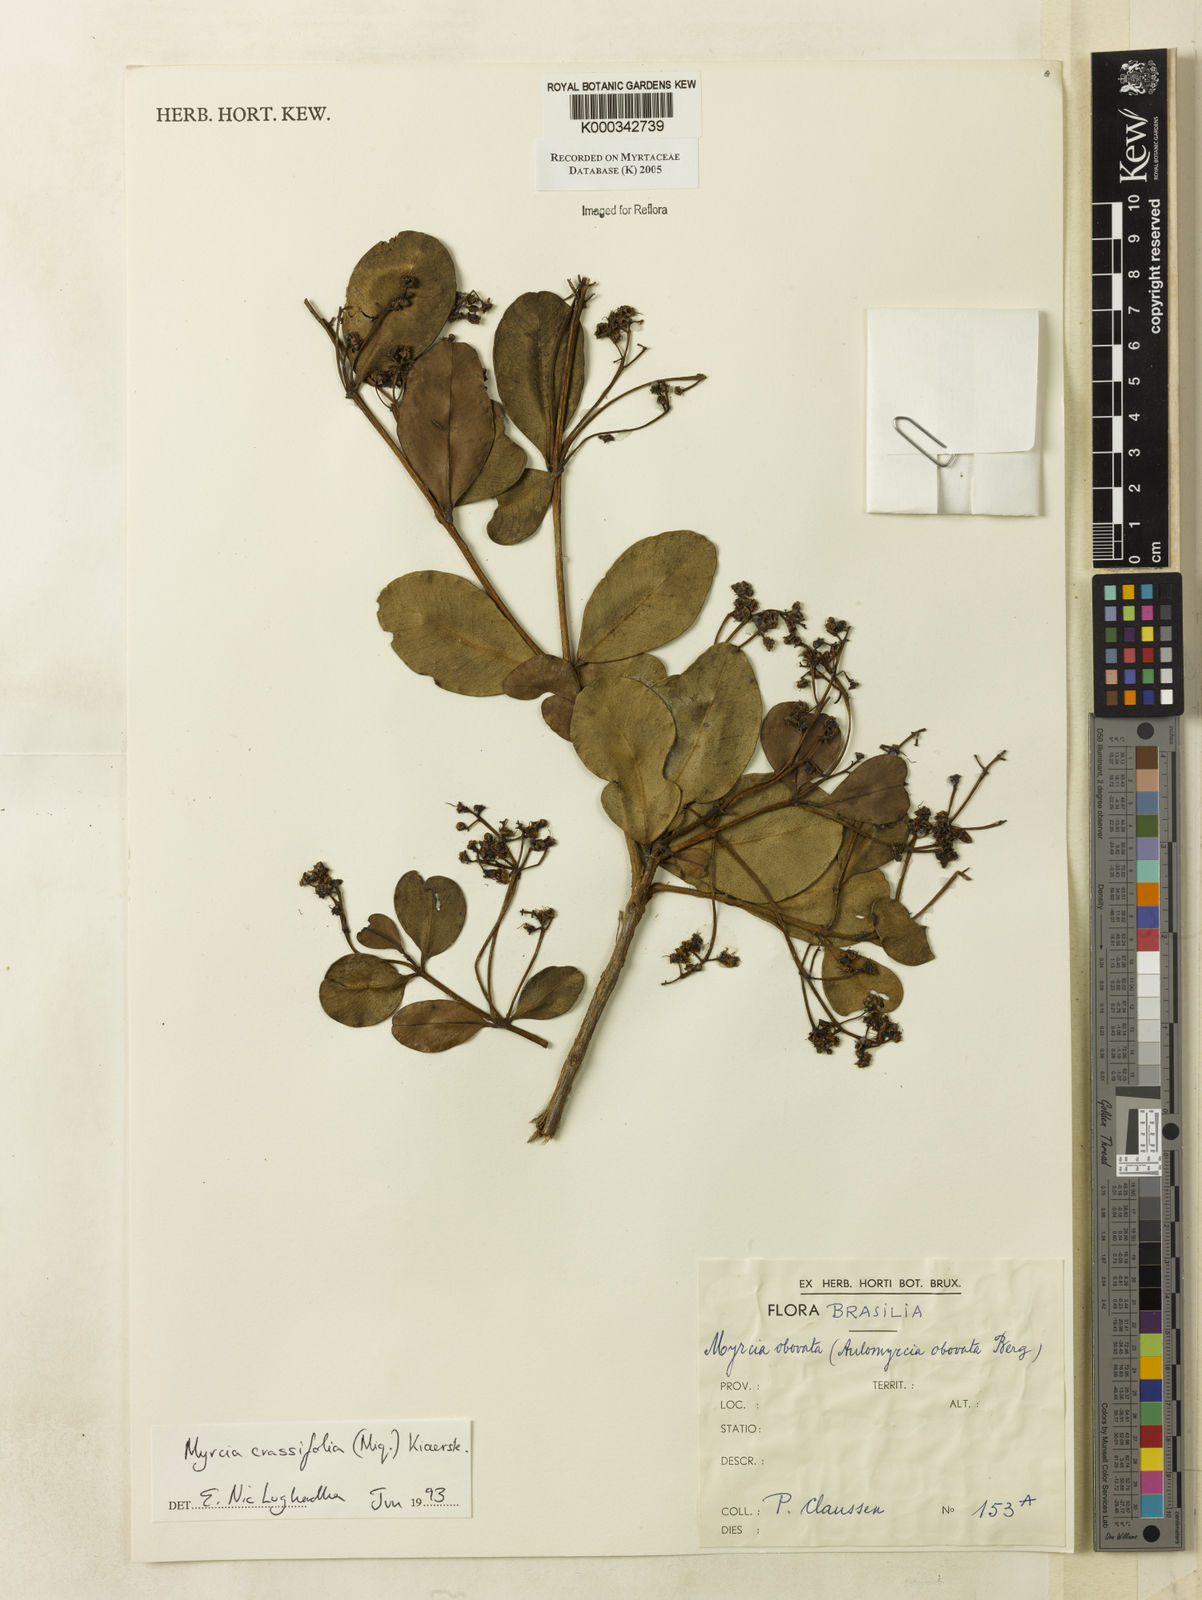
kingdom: Plantae
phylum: Tracheophyta
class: Magnoliopsida
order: Myrtales
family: Myrtaceae
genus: Myrcia
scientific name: Myrcia obovata
